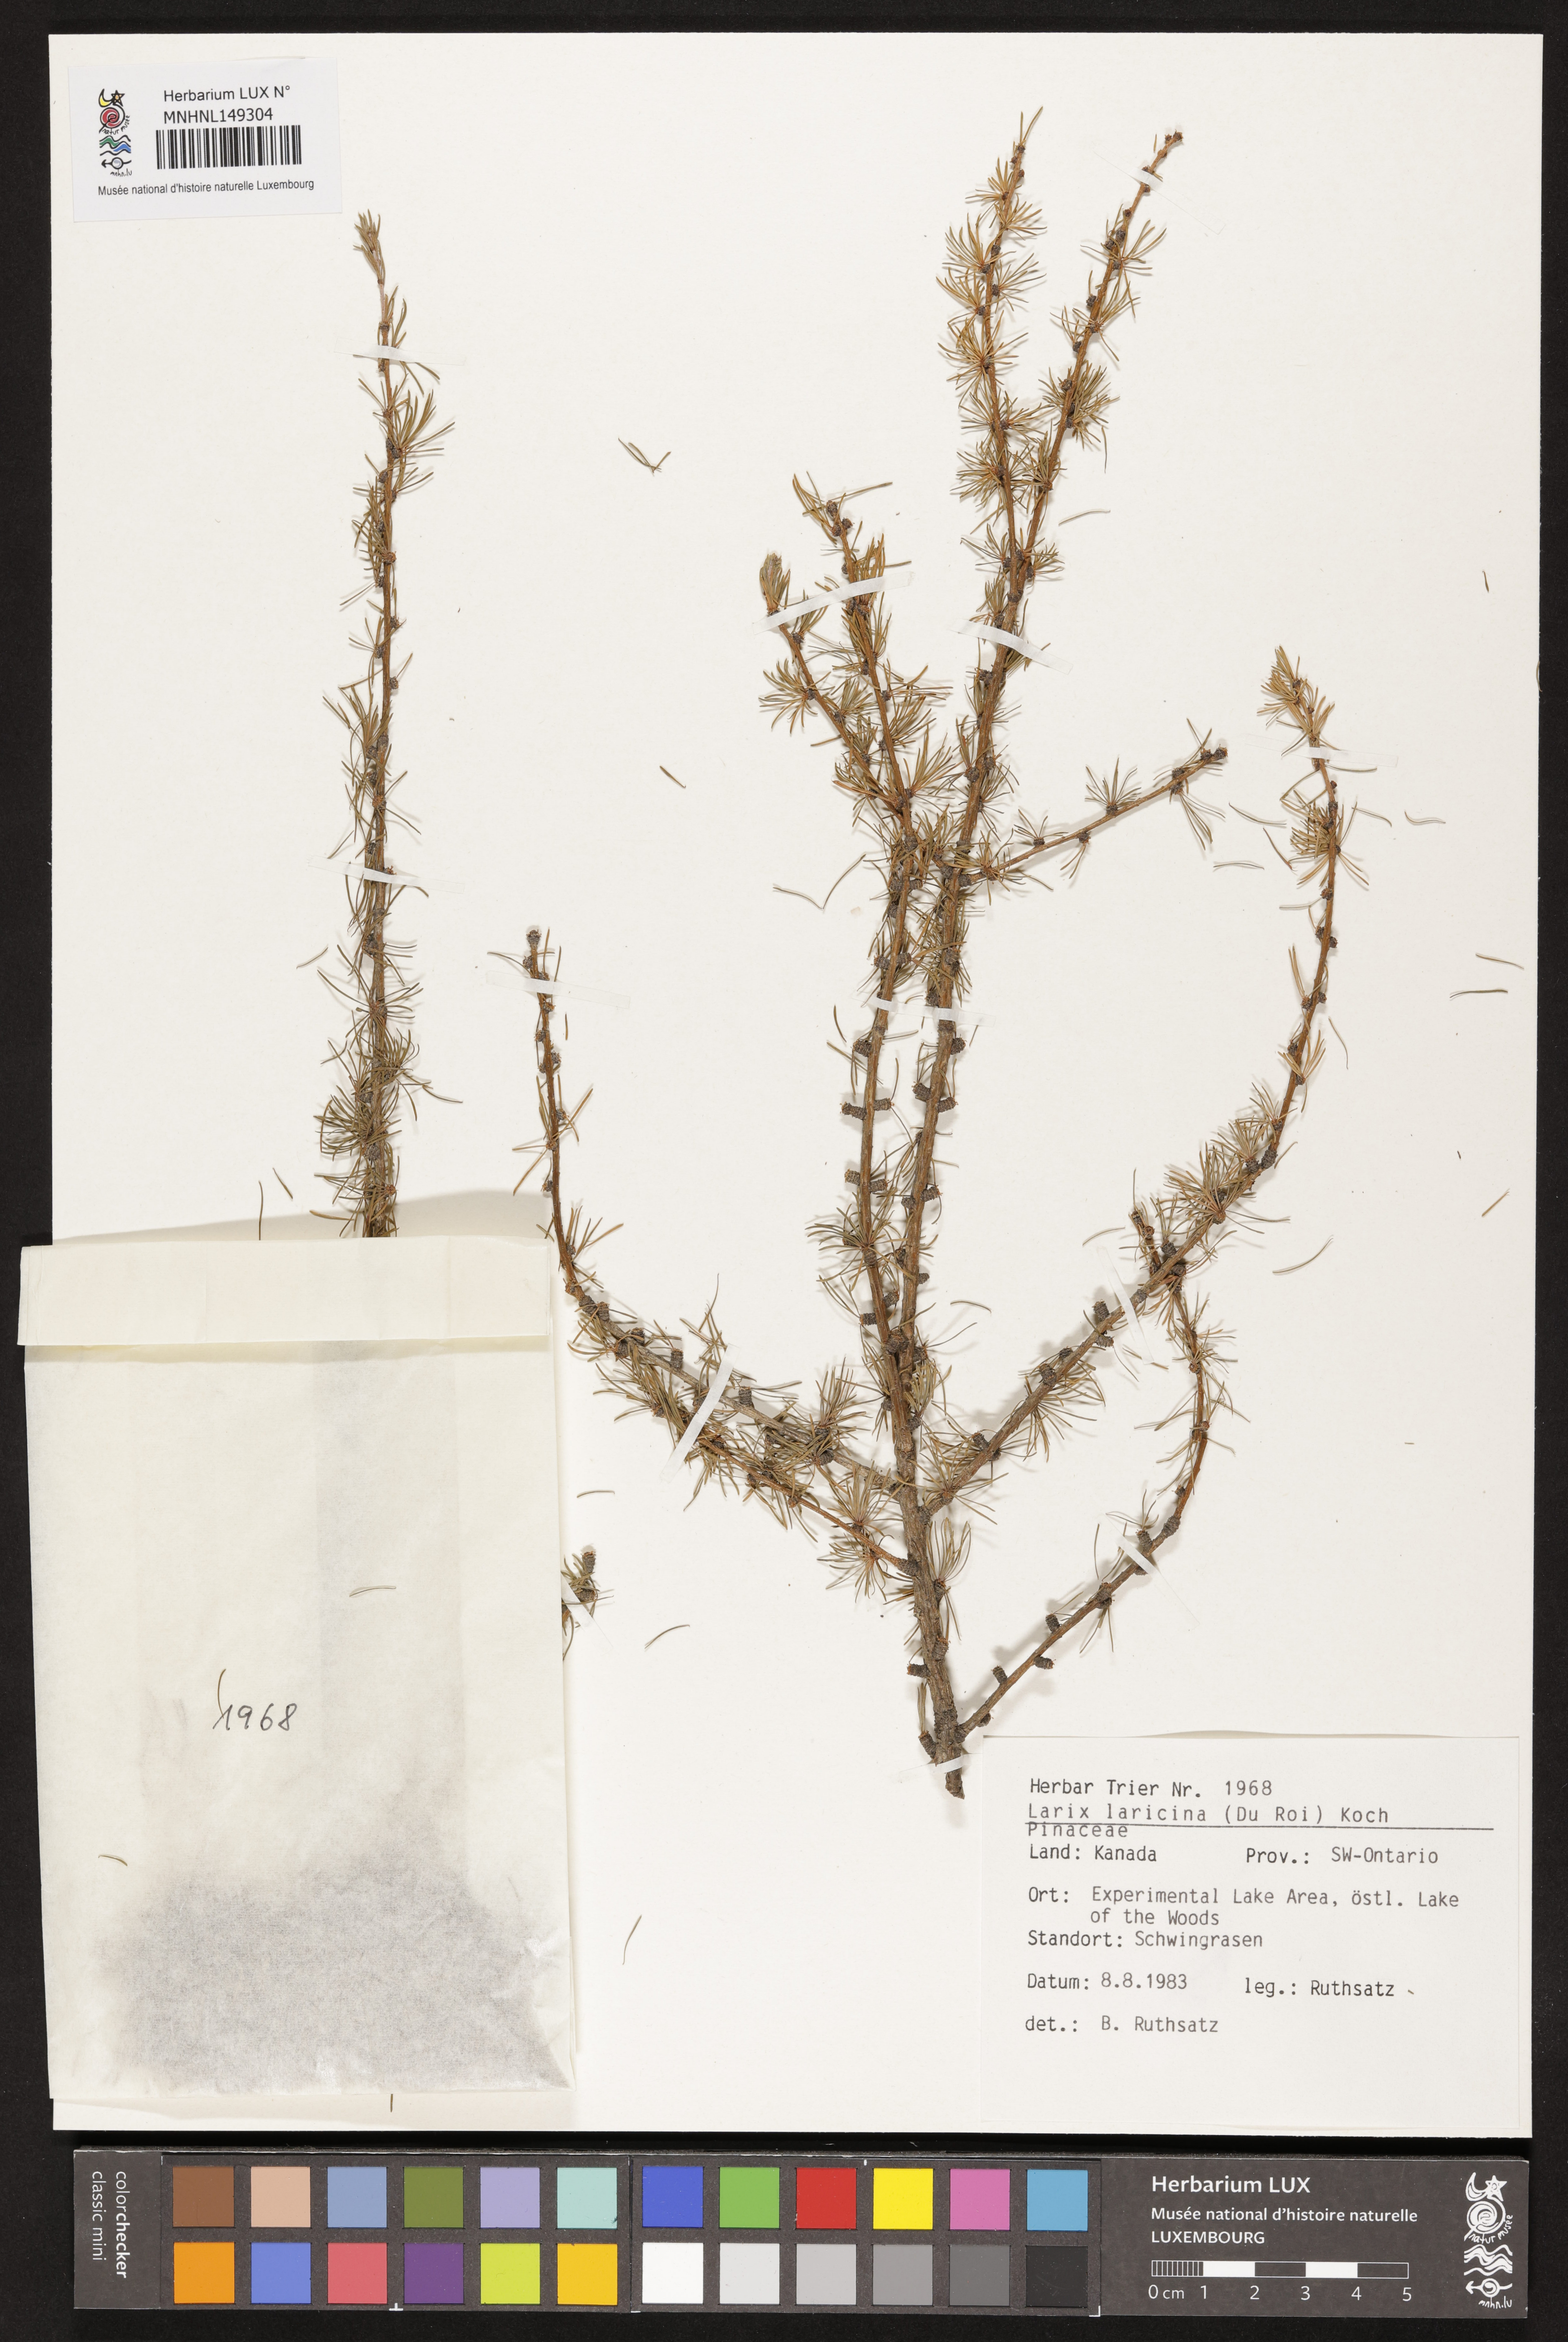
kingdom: Plantae
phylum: Tracheophyta
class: Pinopsida
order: Pinales
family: Pinaceae
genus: Larix
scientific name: Larix laricina
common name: American larch
